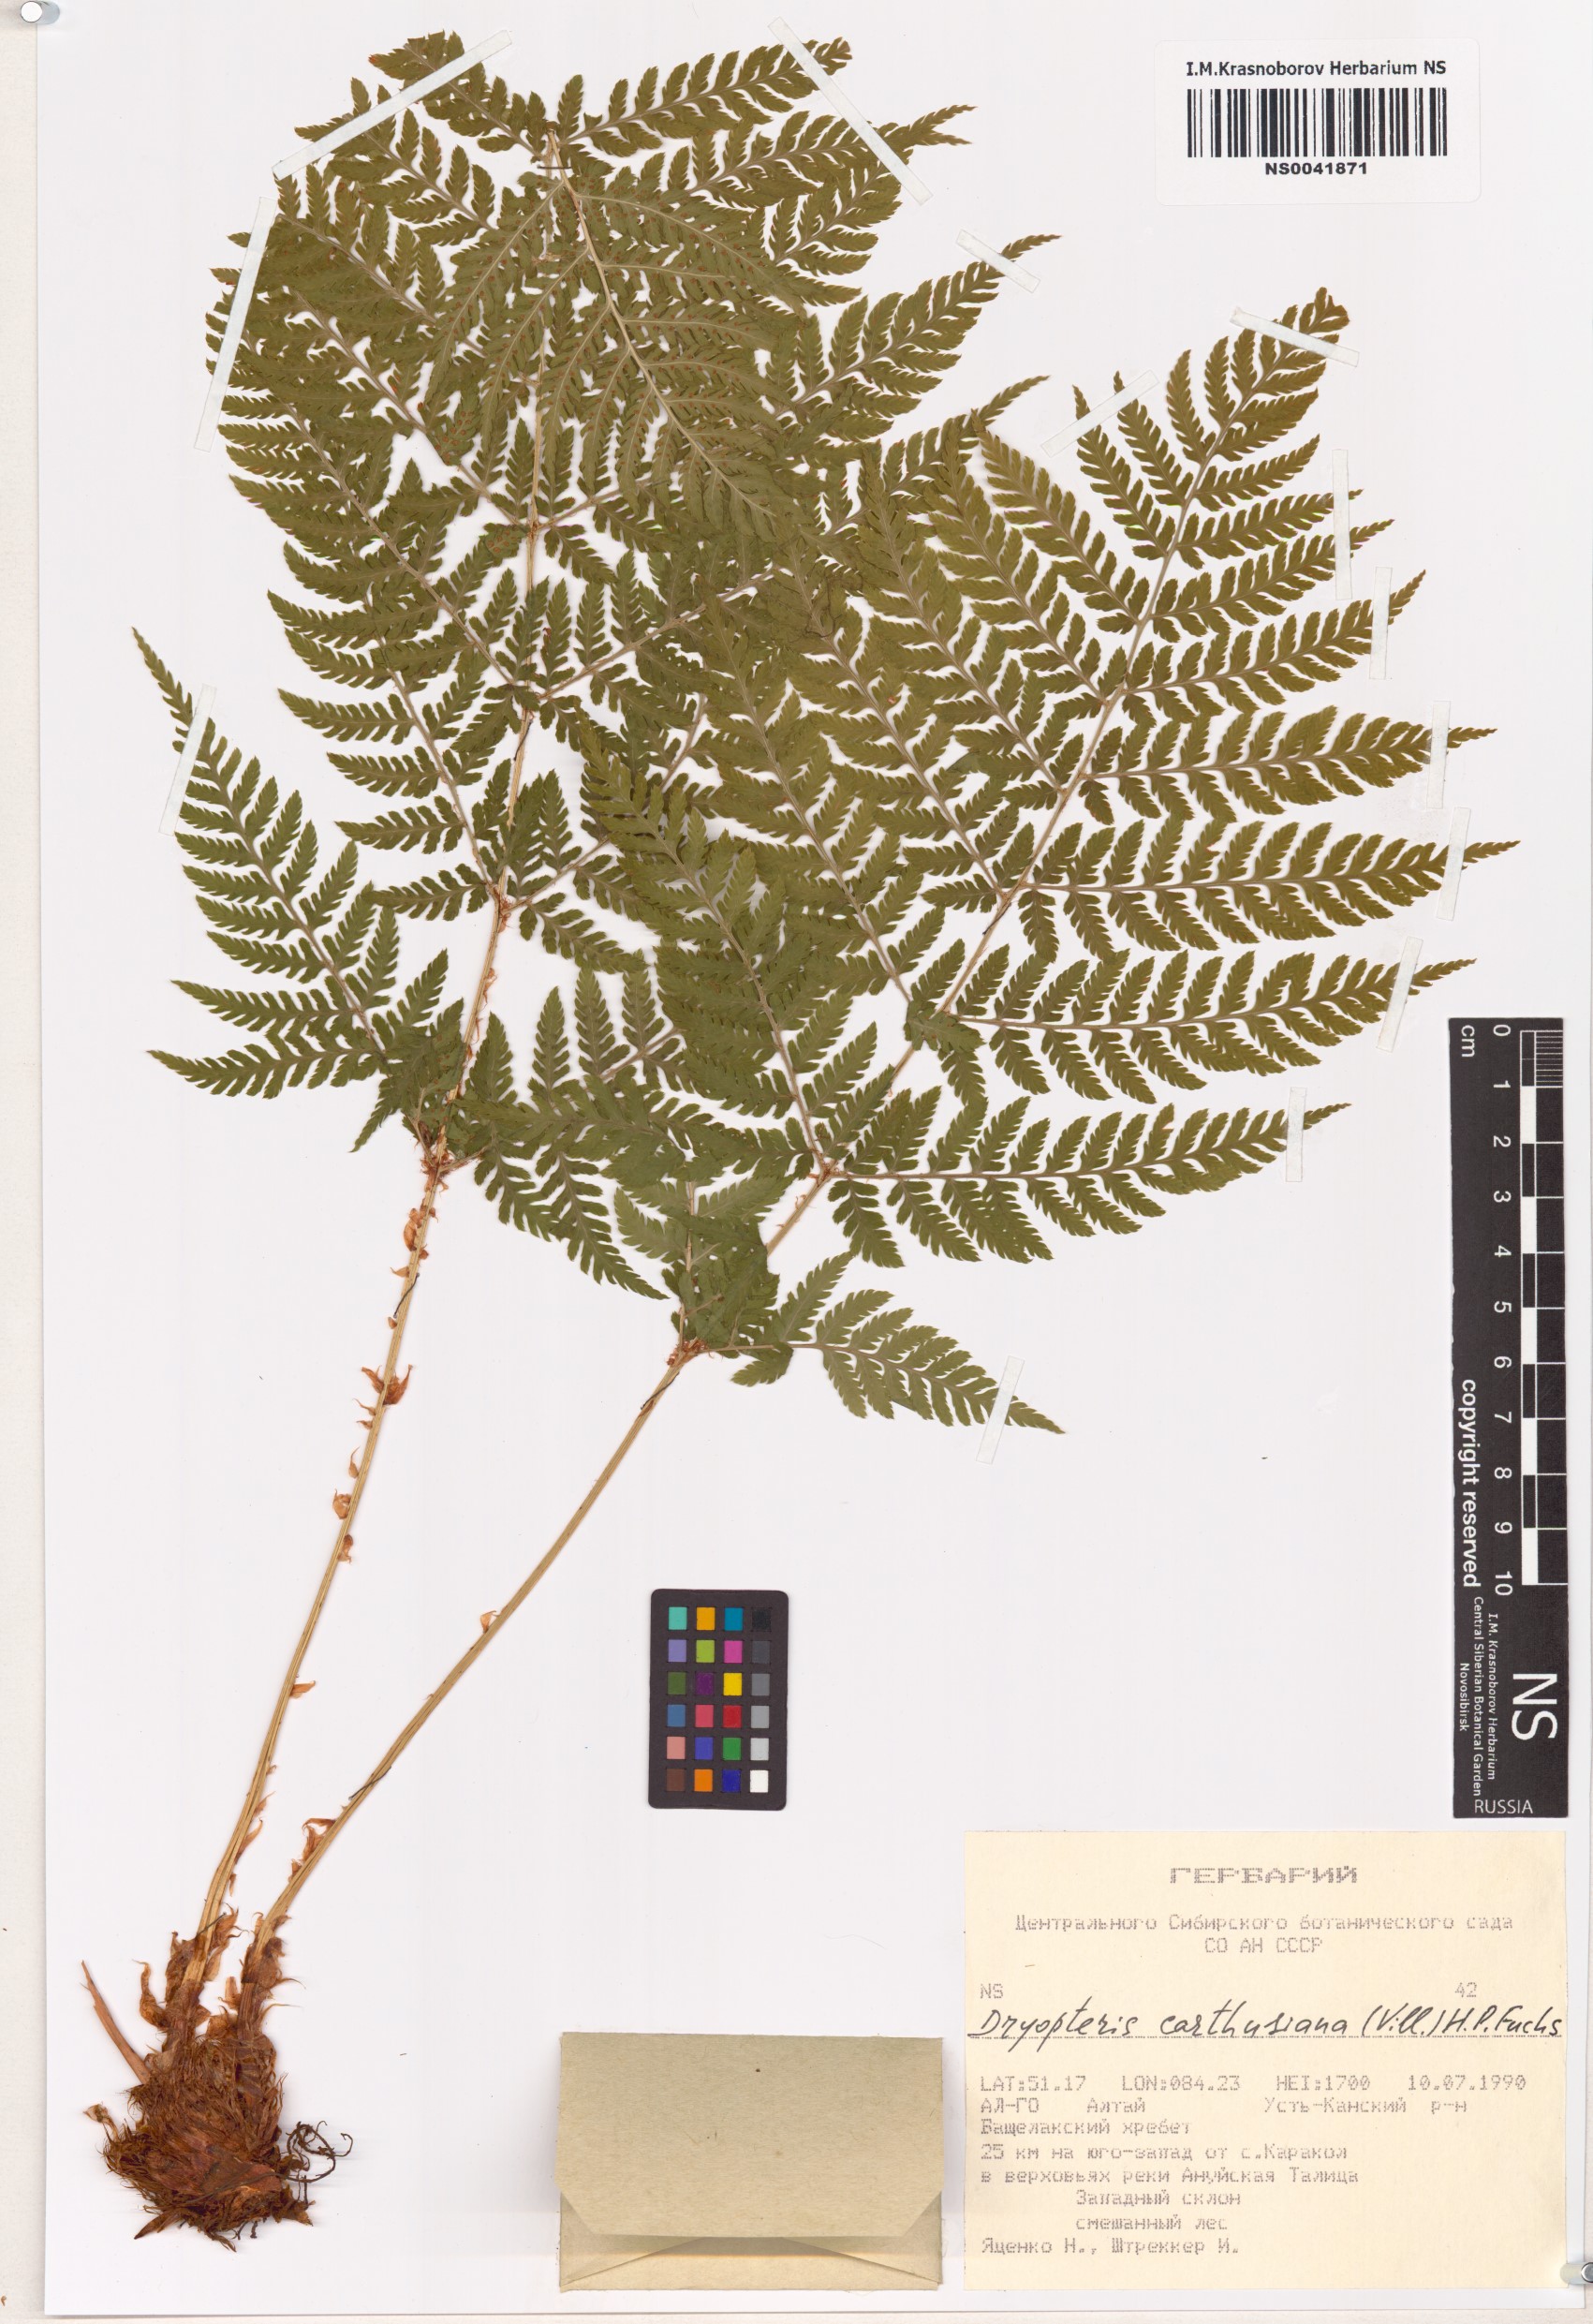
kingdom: Plantae
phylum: Tracheophyta
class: Polypodiopsida
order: Polypodiales
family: Dryopteridaceae
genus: Dryopteris
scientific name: Dryopteris carthusiana
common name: Narrow buckler-fern
